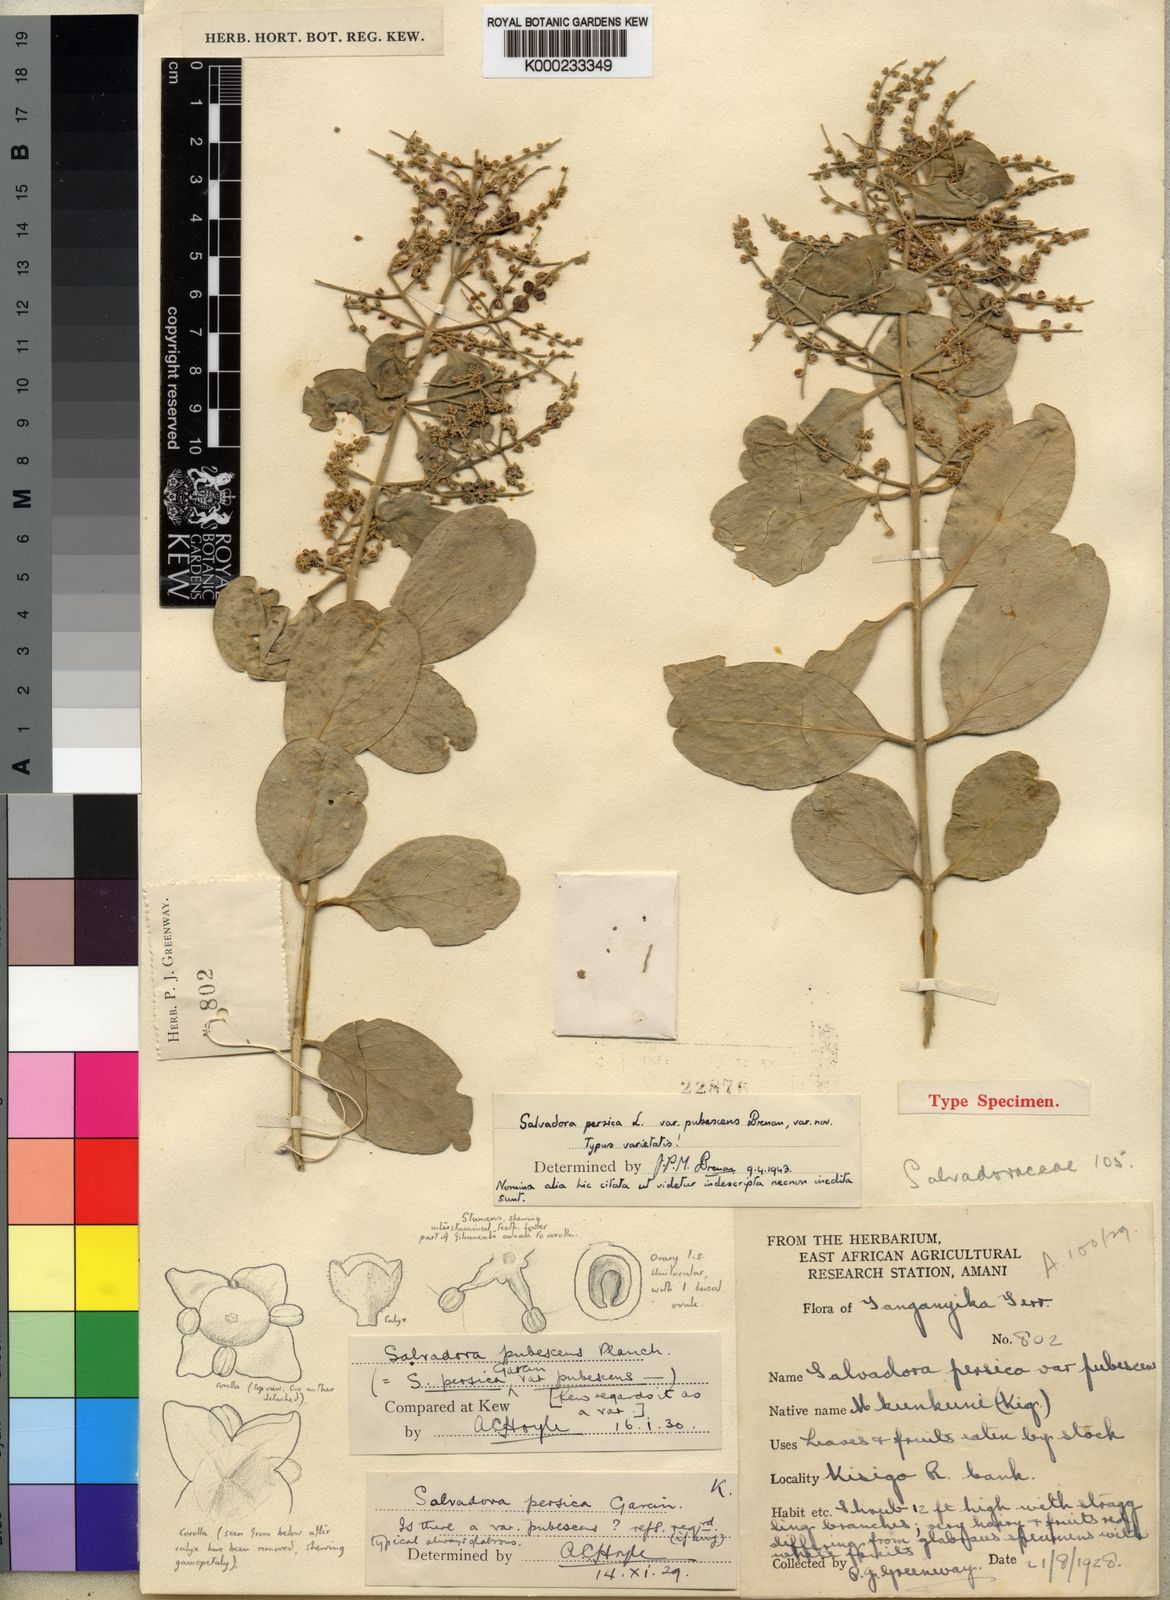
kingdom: Plantae
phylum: Tracheophyta
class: Magnoliopsida
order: Brassicales
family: Salvadoraceae
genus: Salvadora
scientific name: Salvadora persica
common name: Toothbrushtree
